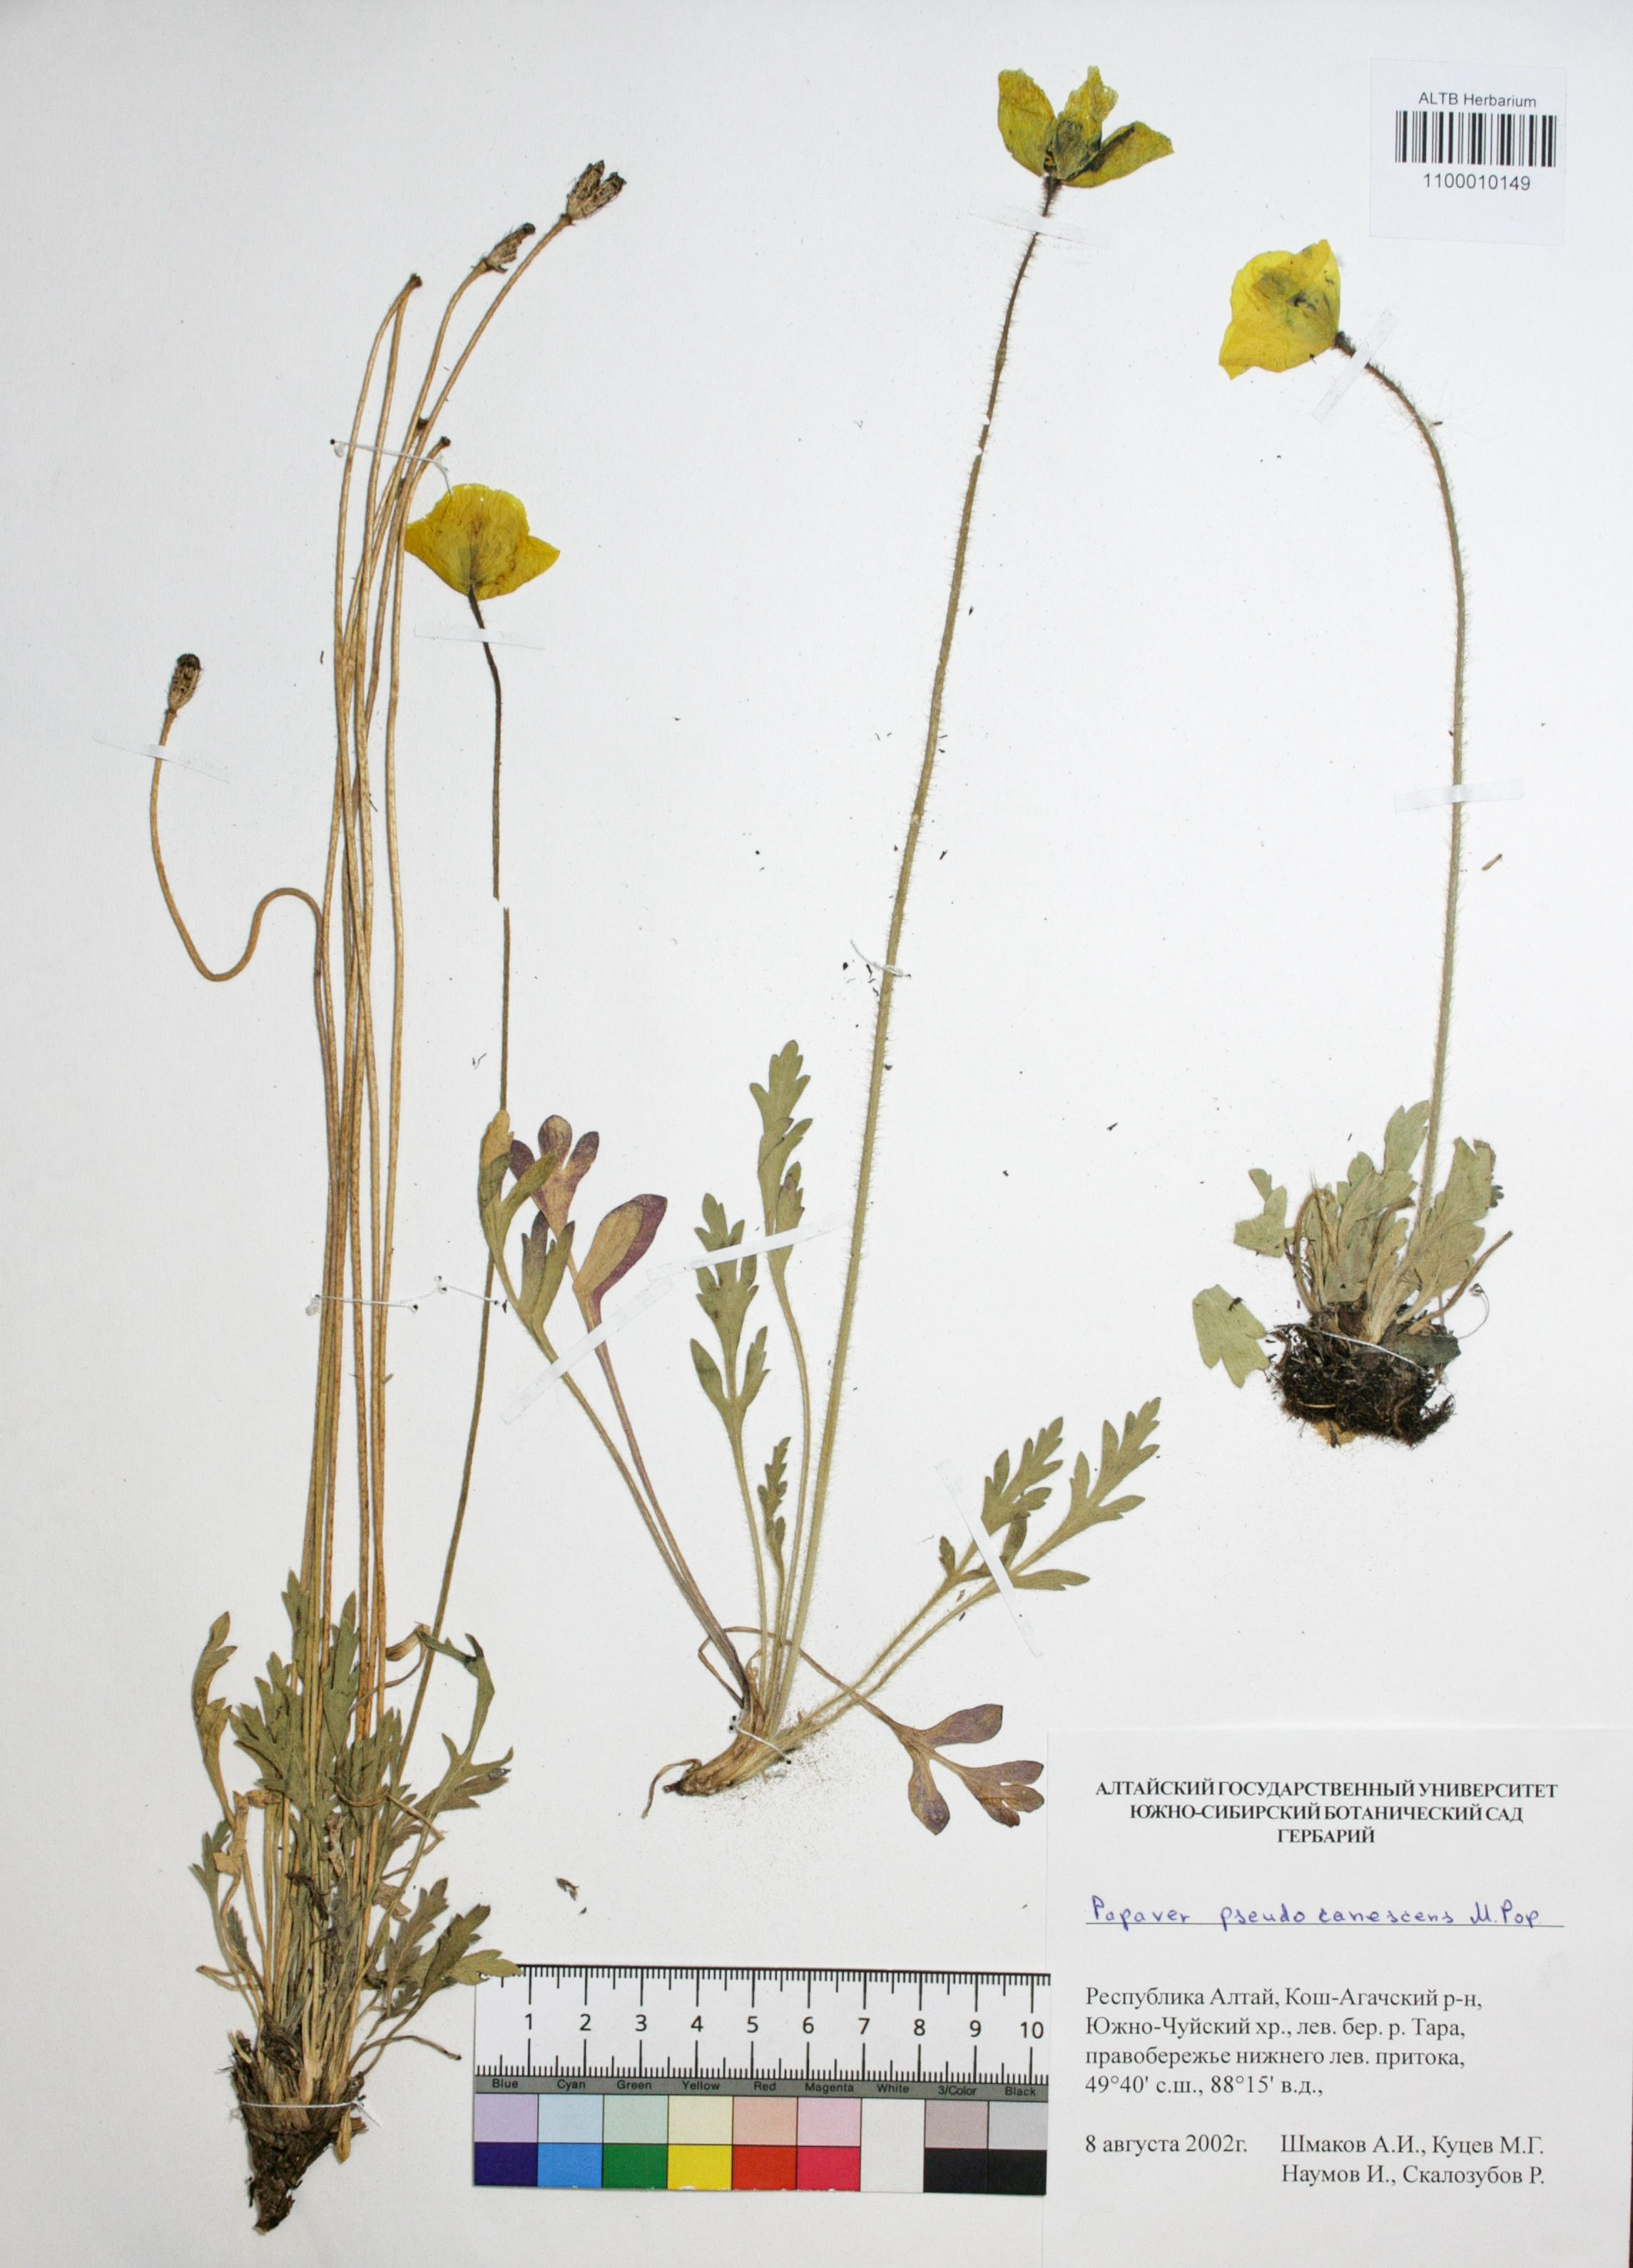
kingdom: Plantae
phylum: Tracheophyta
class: Magnoliopsida
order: Ranunculales
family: Papaveraceae
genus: Papaver
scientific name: Papaver canescens
